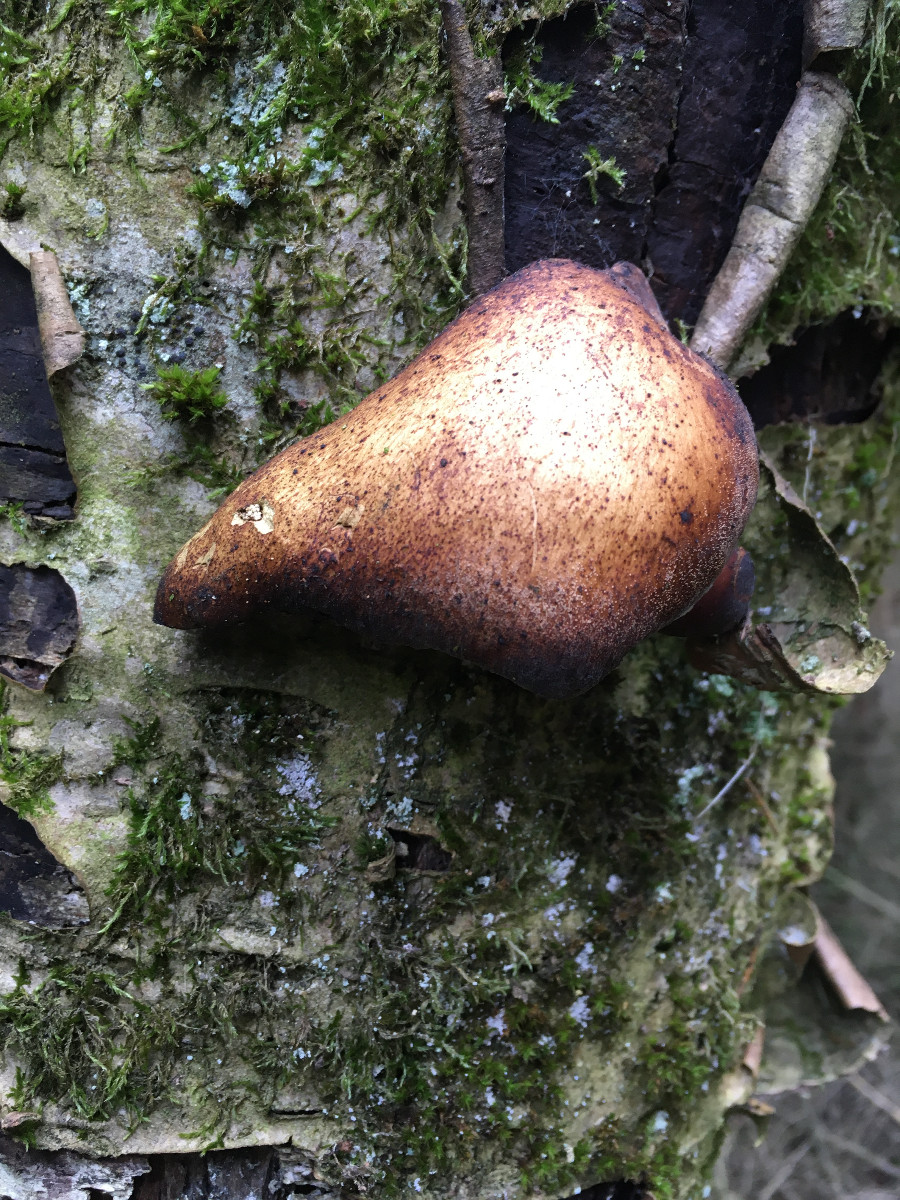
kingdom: Fungi
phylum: Basidiomycota
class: Agaricomycetes
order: Polyporales
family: Fomitopsidaceae
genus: Fomitopsis
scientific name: Fomitopsis betulina
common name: birkeporesvamp
